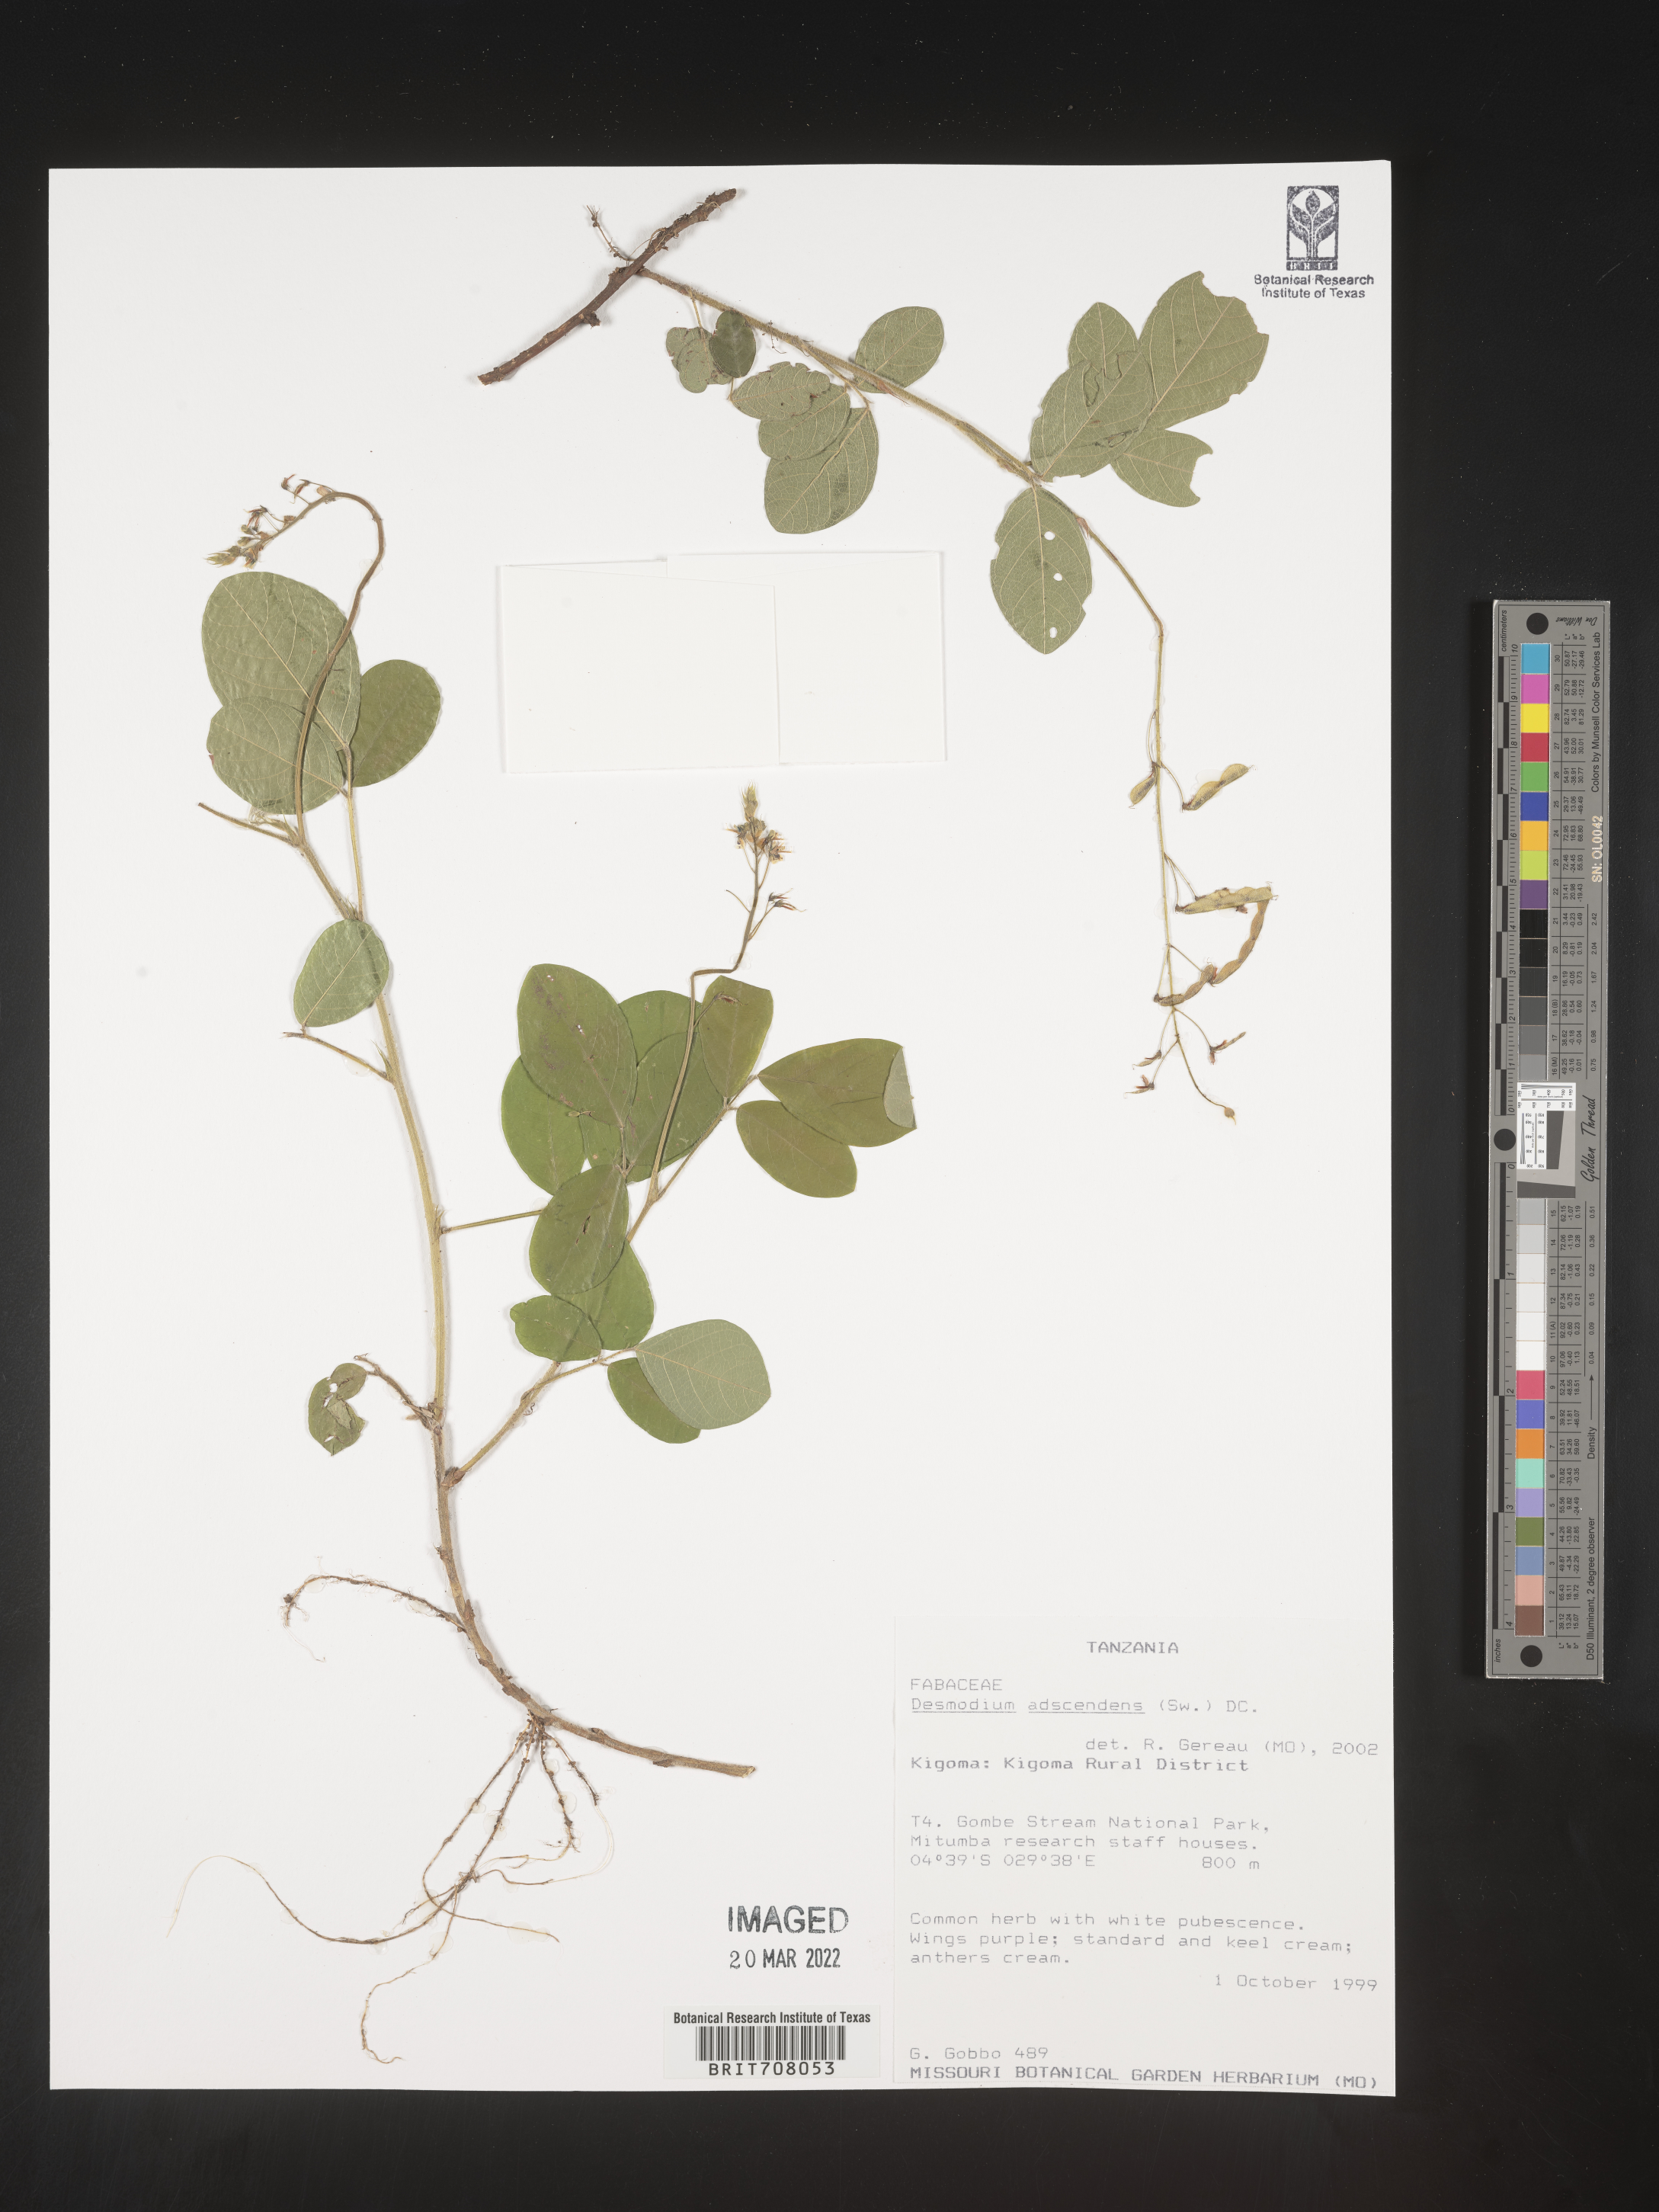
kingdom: Plantae
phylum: Tracheophyta
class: Magnoliopsida
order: Fabales
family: Fabaceae
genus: Desmodium
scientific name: Desmodium
